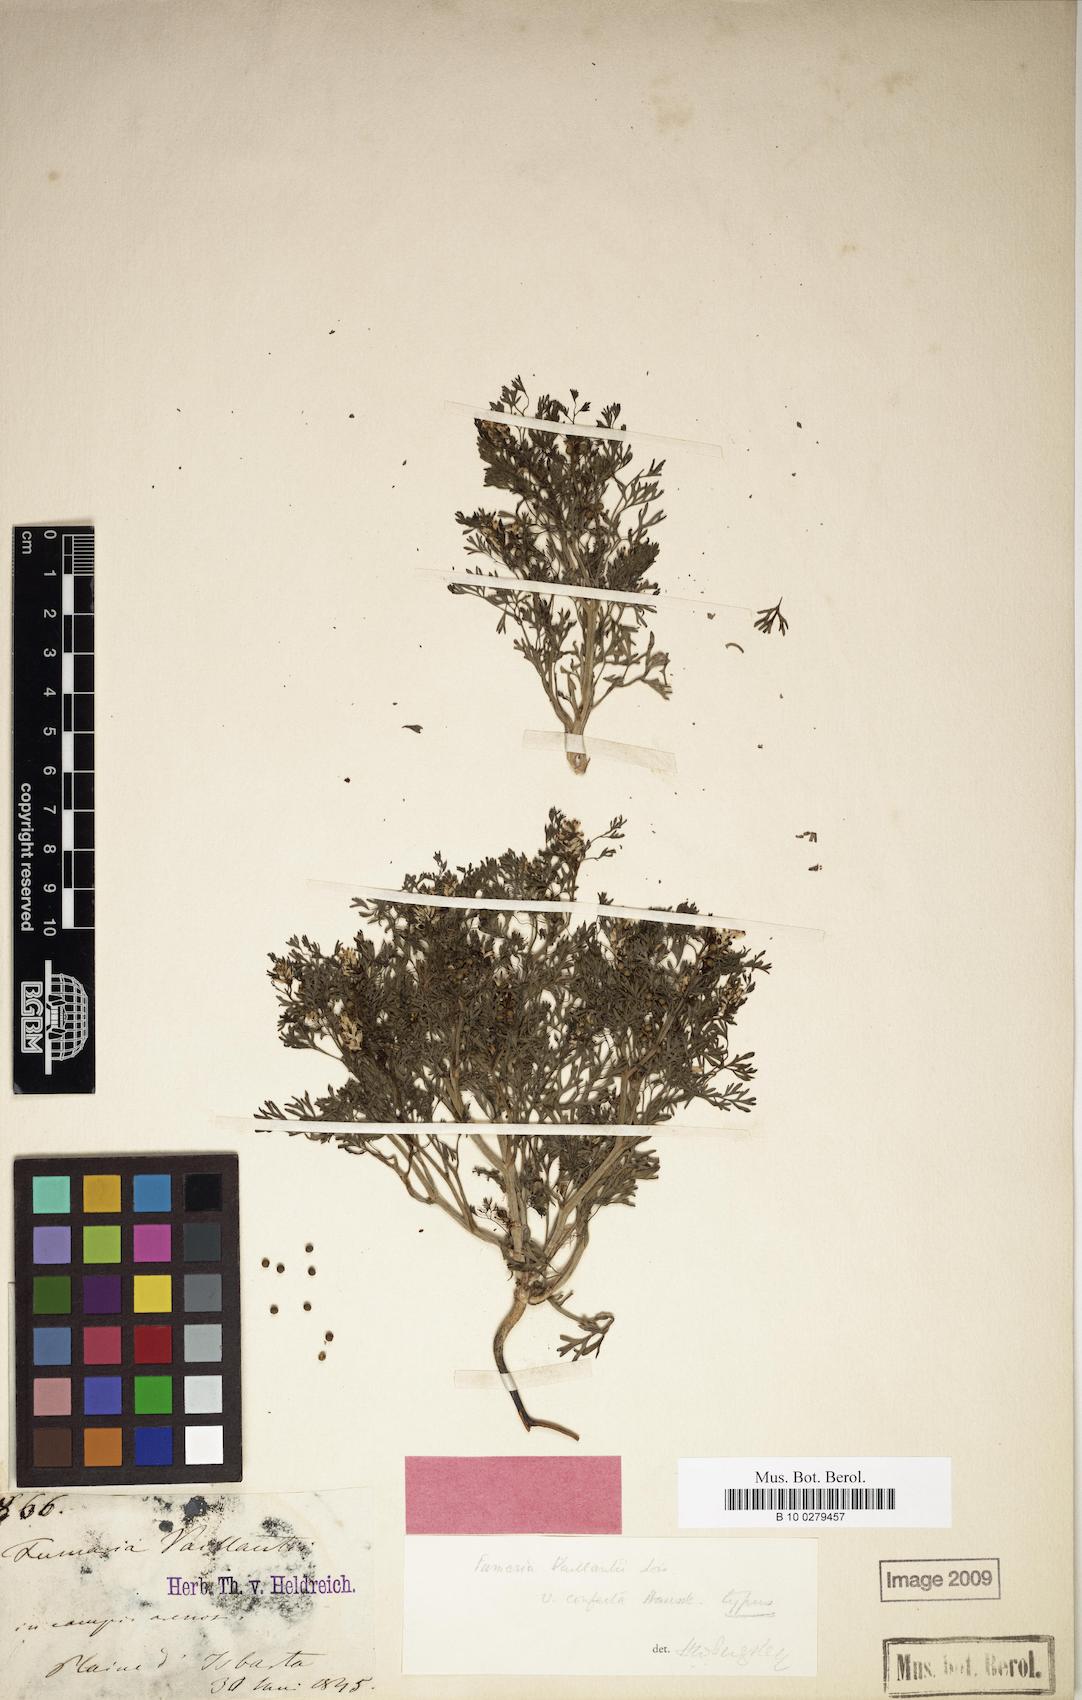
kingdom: Plantae
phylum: Tracheophyta
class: Magnoliopsida
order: Ranunculales
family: Papaveraceae
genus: Fumaria
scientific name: Fumaria vaillantii
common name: Few-flowered fumitory
